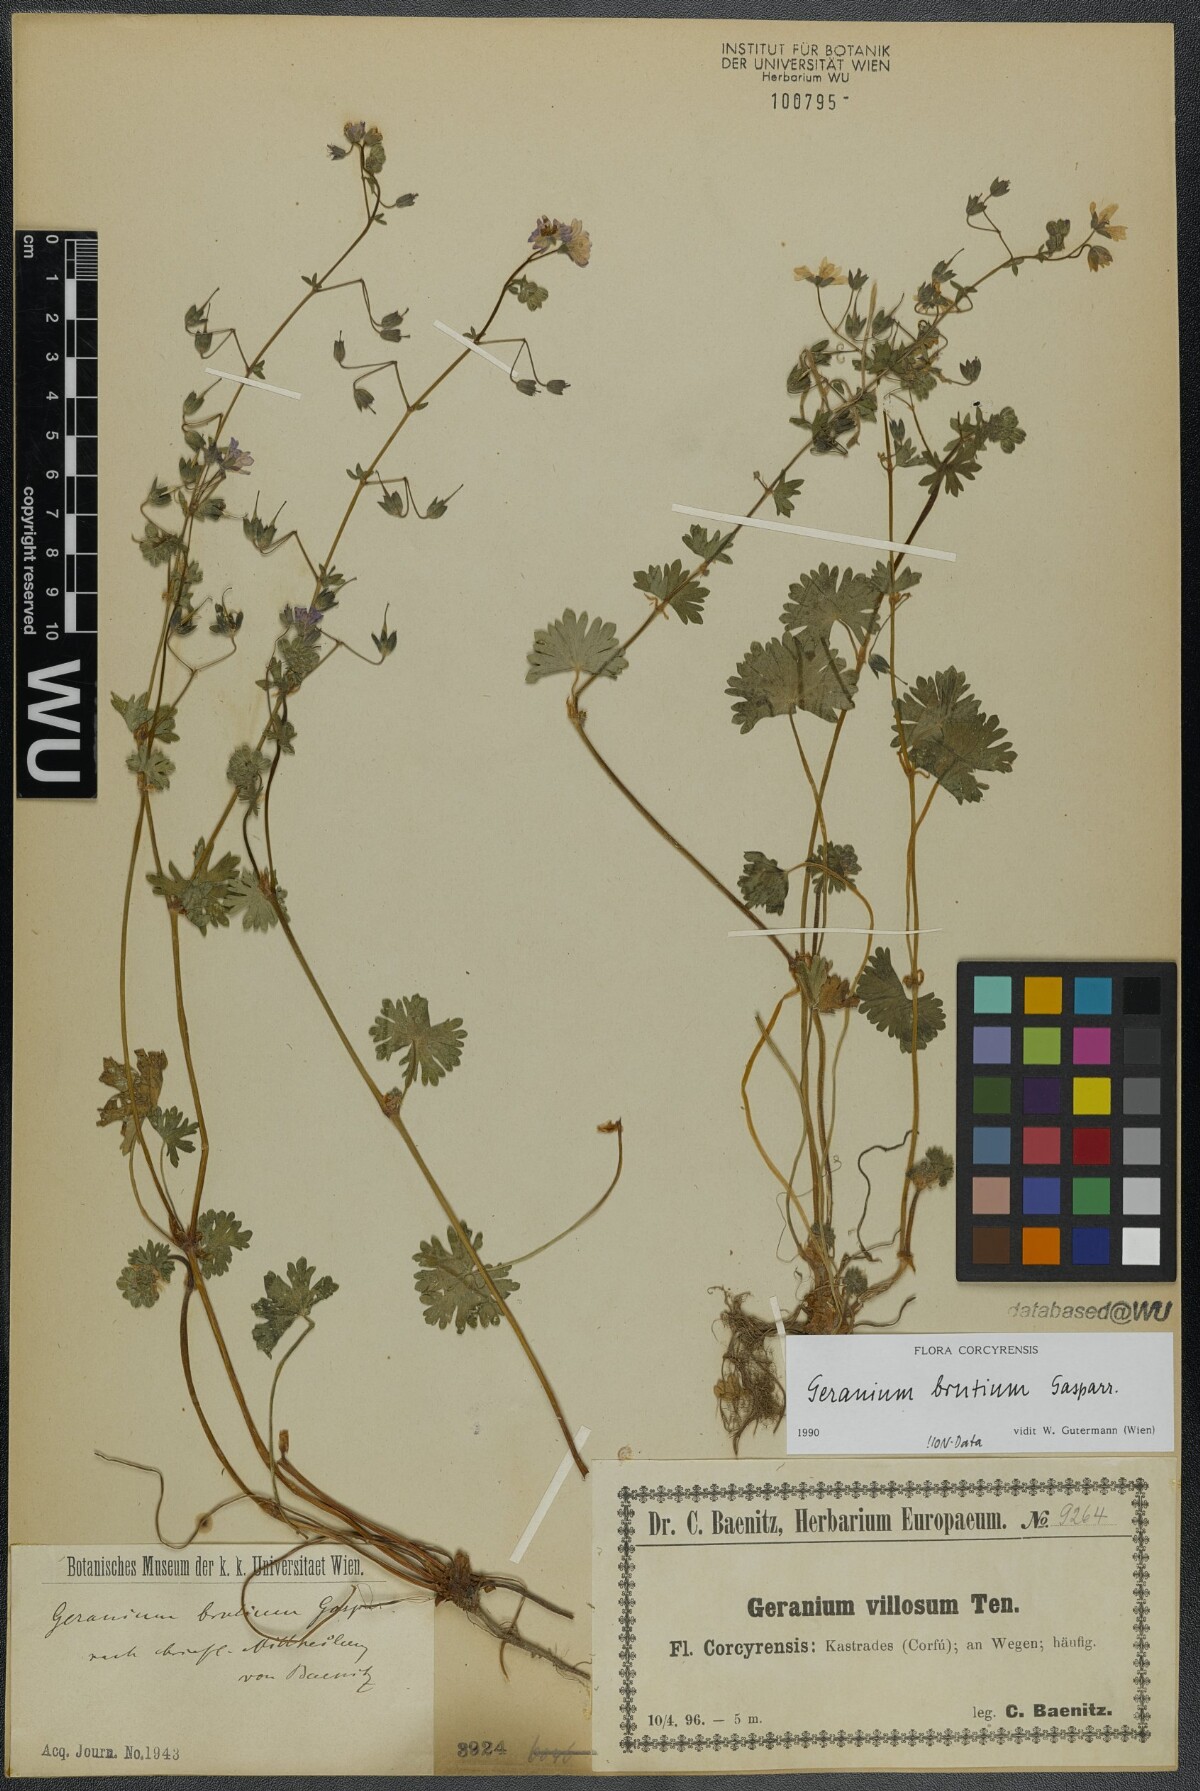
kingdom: Plantae
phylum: Tracheophyta
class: Magnoliopsida
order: Geraniales
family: Geraniaceae
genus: Geranium
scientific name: Geranium molle
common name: Dove's-foot crane's-bill
